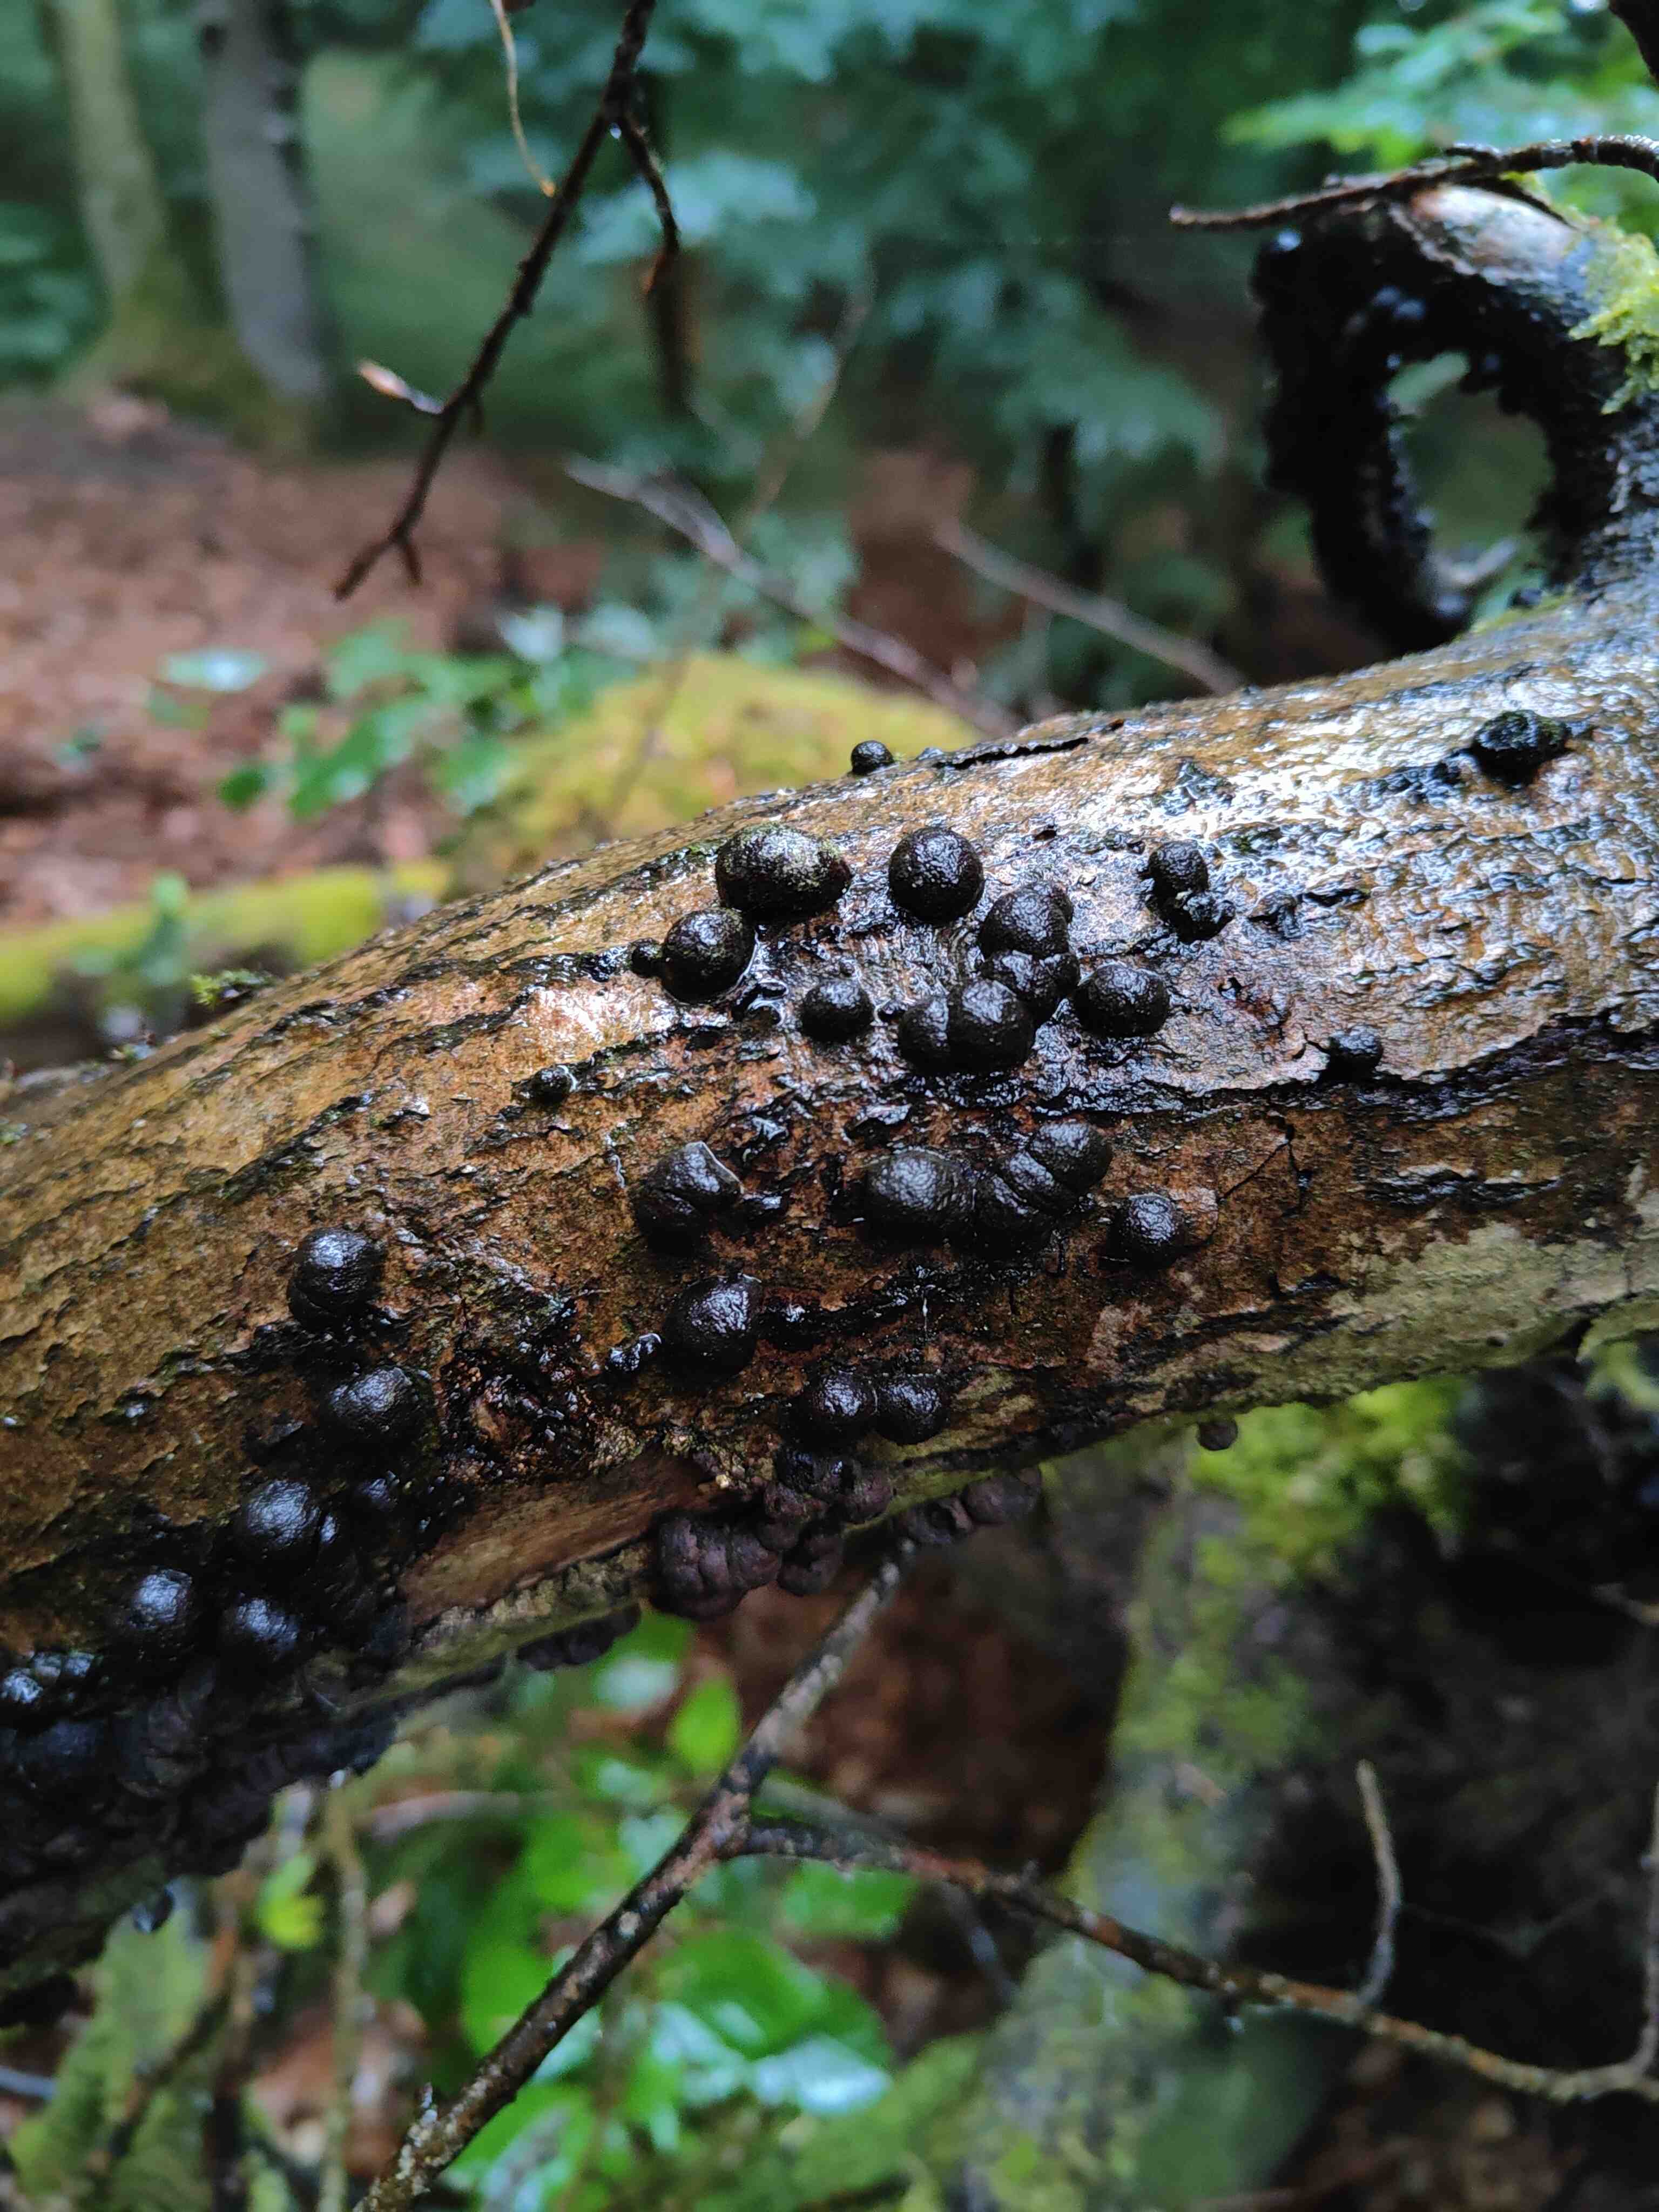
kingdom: Fungi
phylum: Ascomycota
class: Sordariomycetes
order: Xylariales
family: Hypoxylaceae
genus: Hypoxylon
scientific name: Hypoxylon fragiforme
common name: kuljordbær
